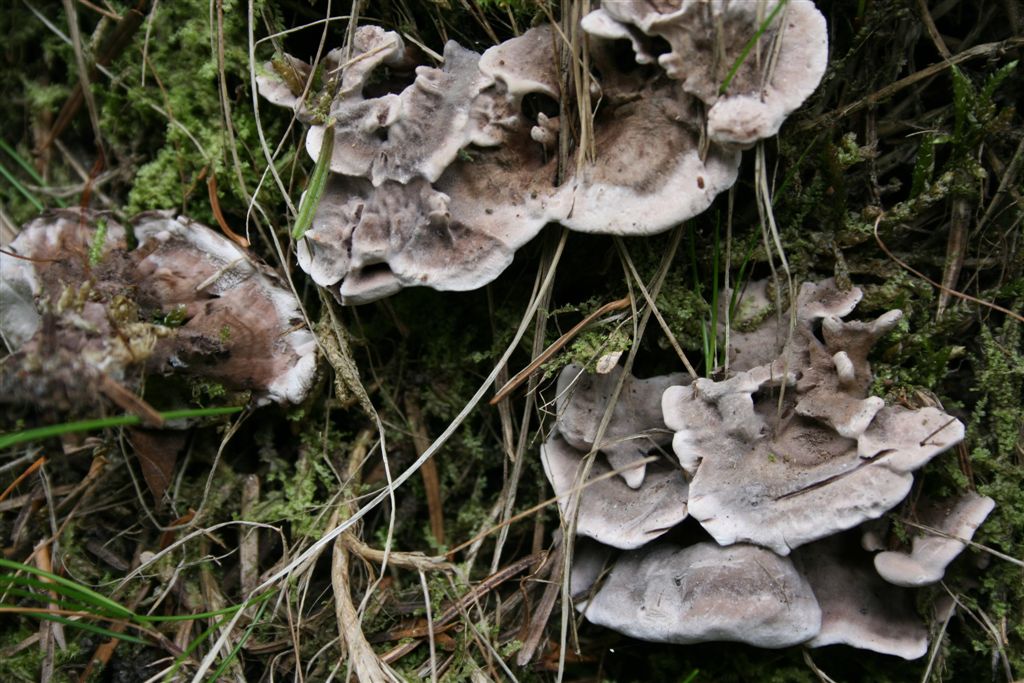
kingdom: Fungi
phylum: Basidiomycota
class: Agaricomycetes
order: Thelephorales
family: Thelephoraceae
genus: Phellodon
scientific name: Phellodon tomentosus
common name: vellugtende duftpigsvamp
